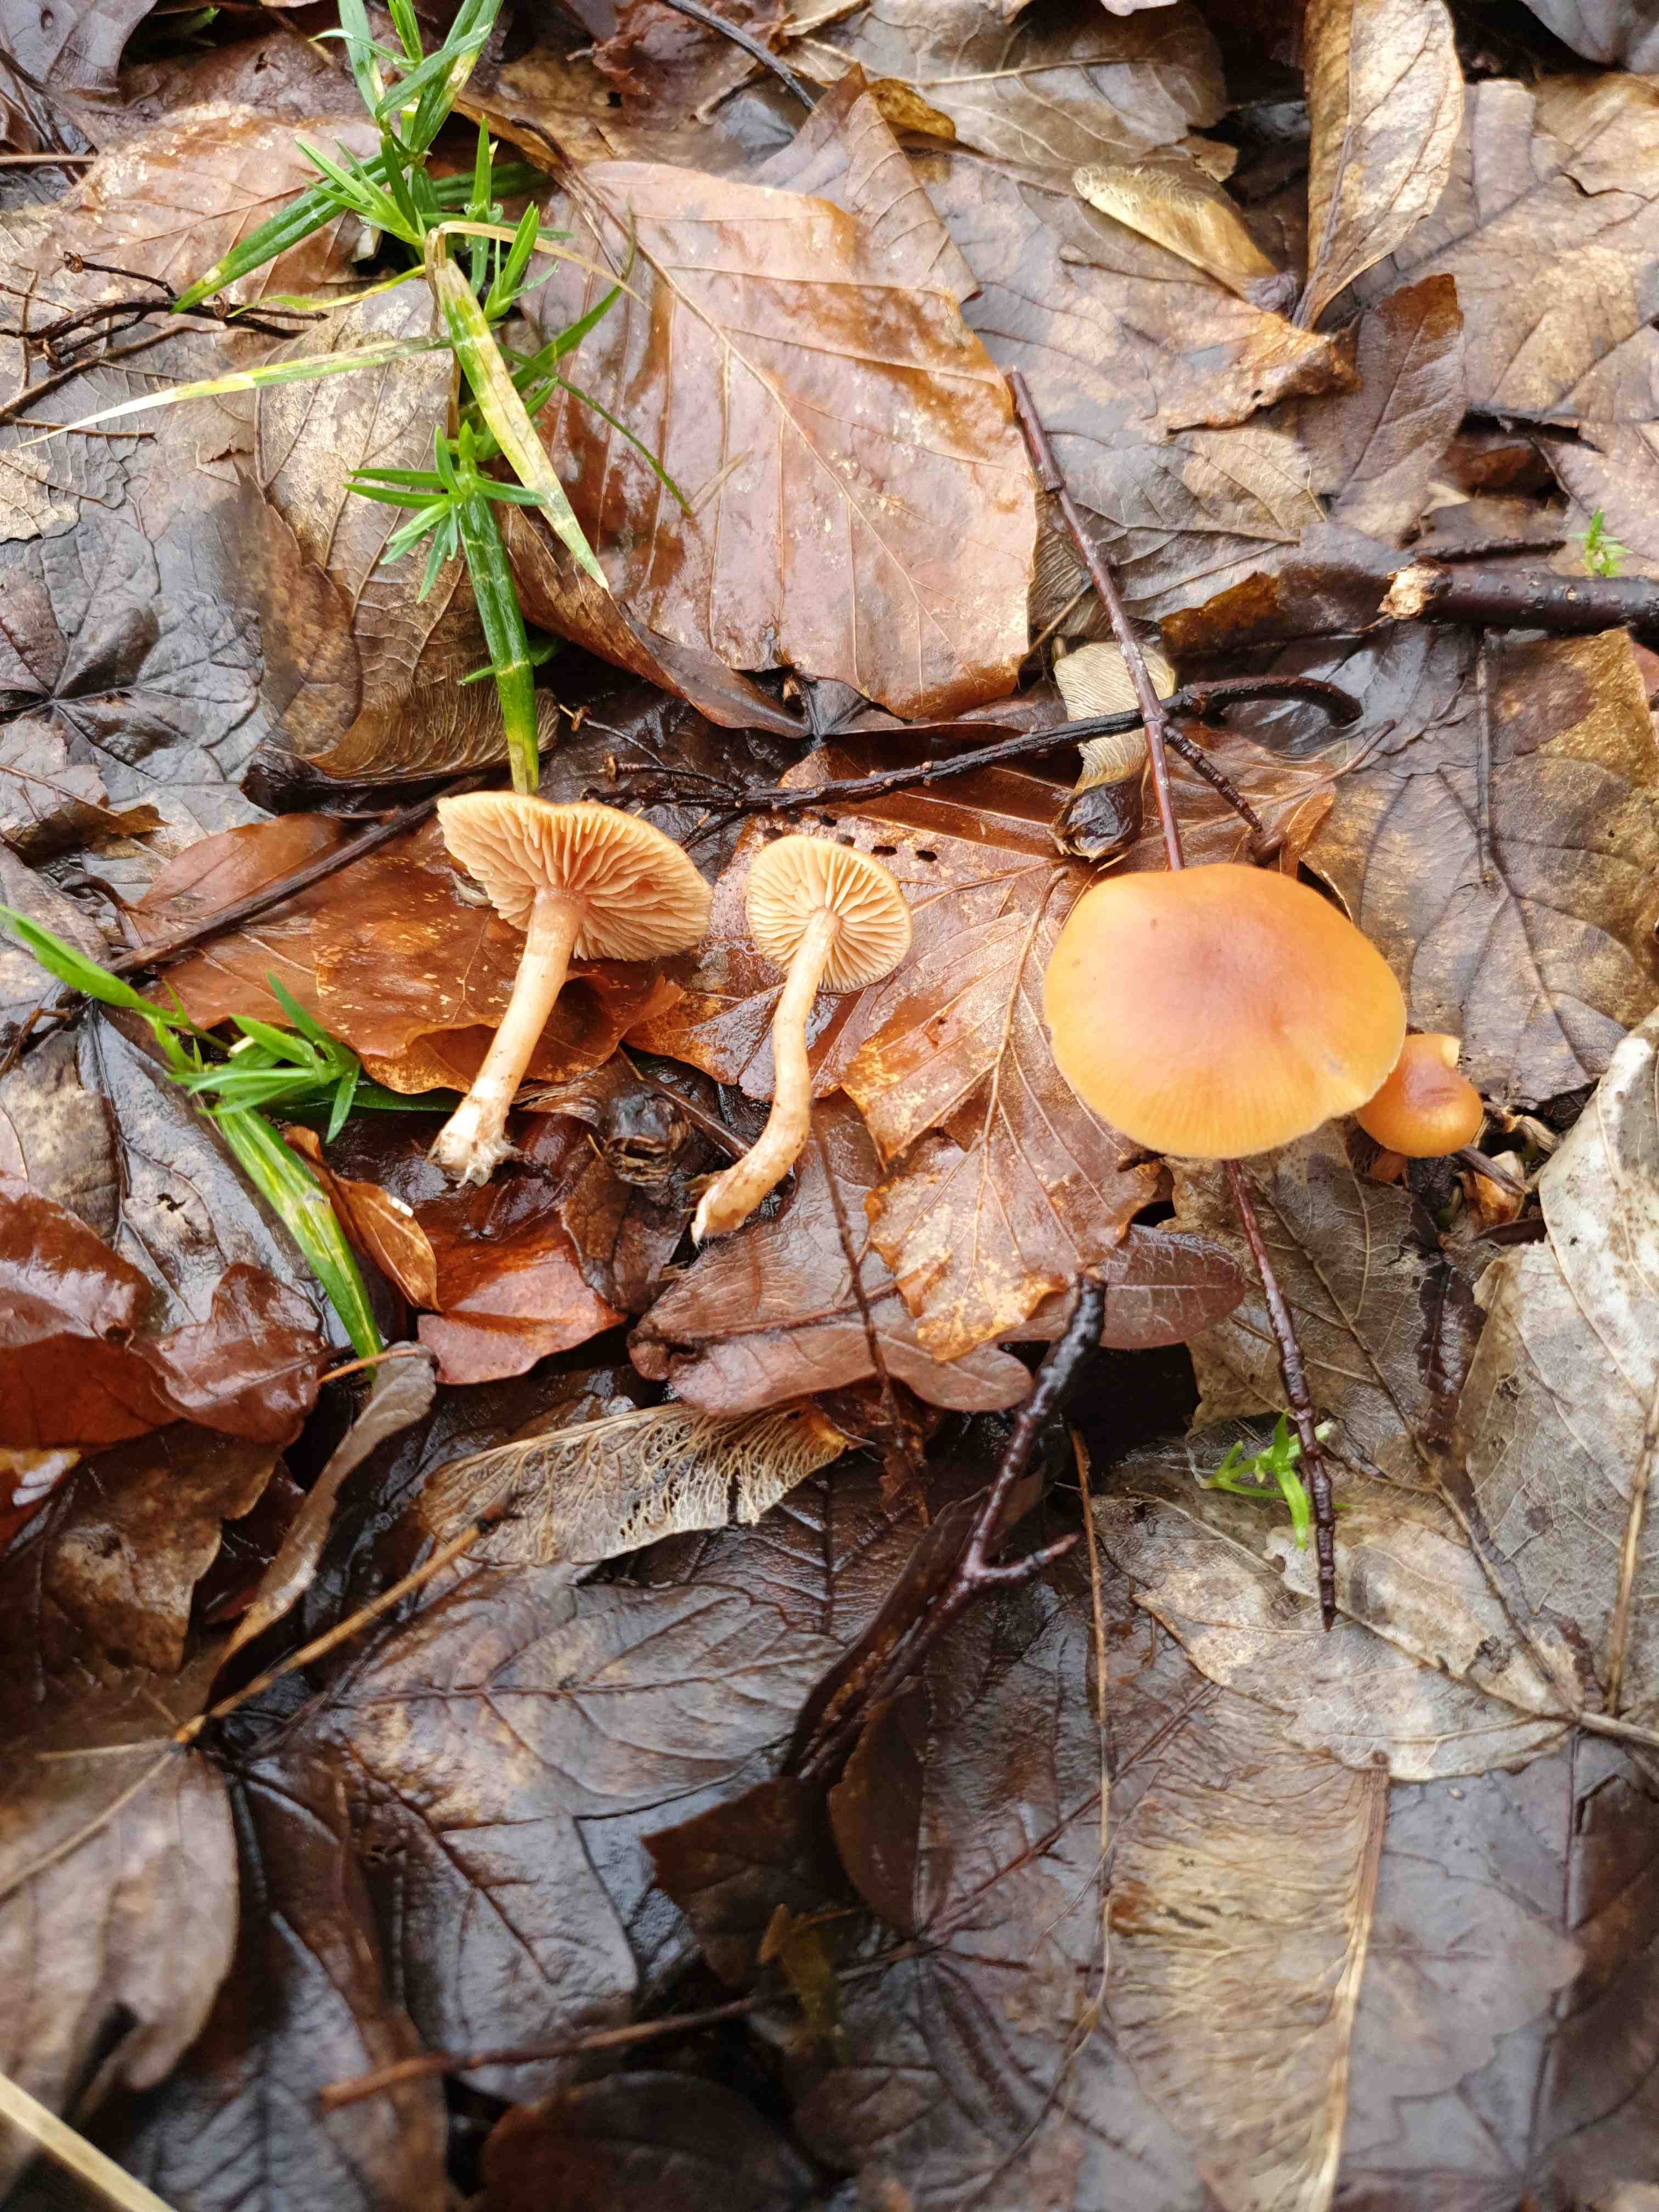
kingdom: Fungi
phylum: Basidiomycota
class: Agaricomycetes
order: Agaricales
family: Tubariaceae
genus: Tubaria
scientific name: Tubaria furfuracea
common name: kliddet fnughat
